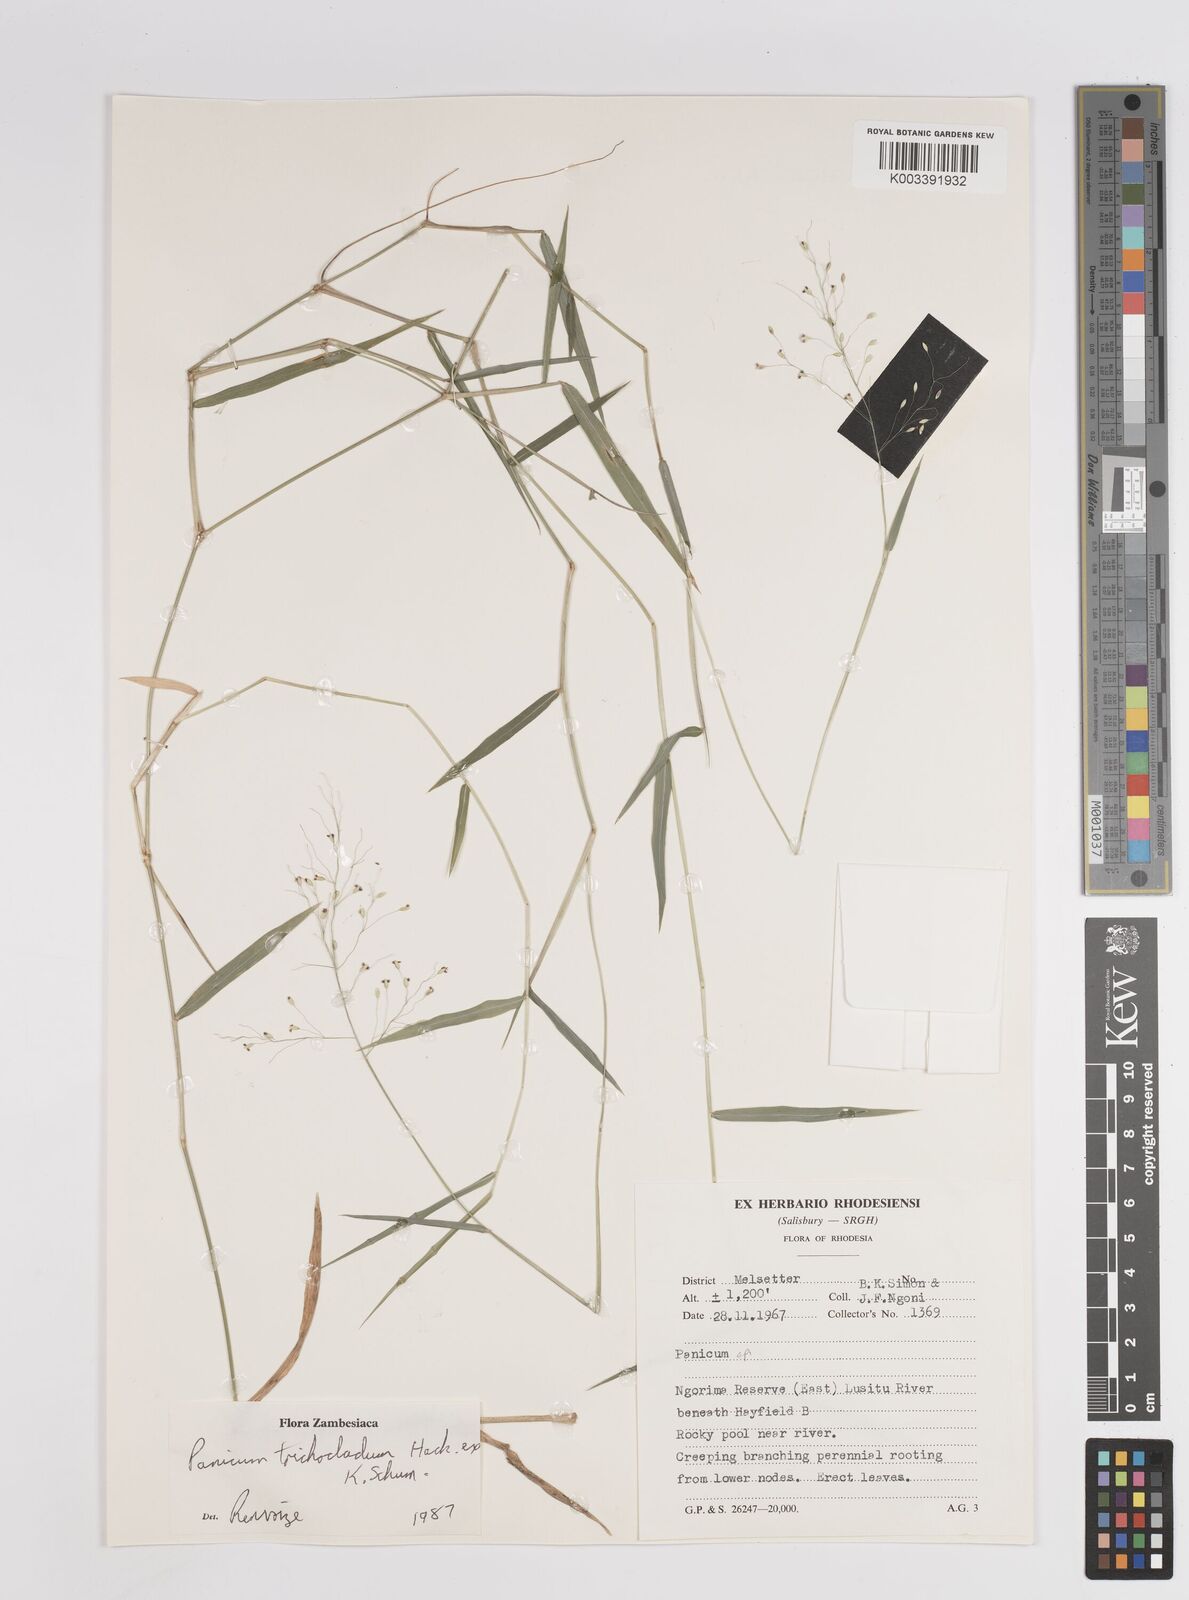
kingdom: Plantae
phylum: Tracheophyta
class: Liliopsida
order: Poales
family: Poaceae
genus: Panicum
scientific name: Panicum trichocladum
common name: Donkey grass
